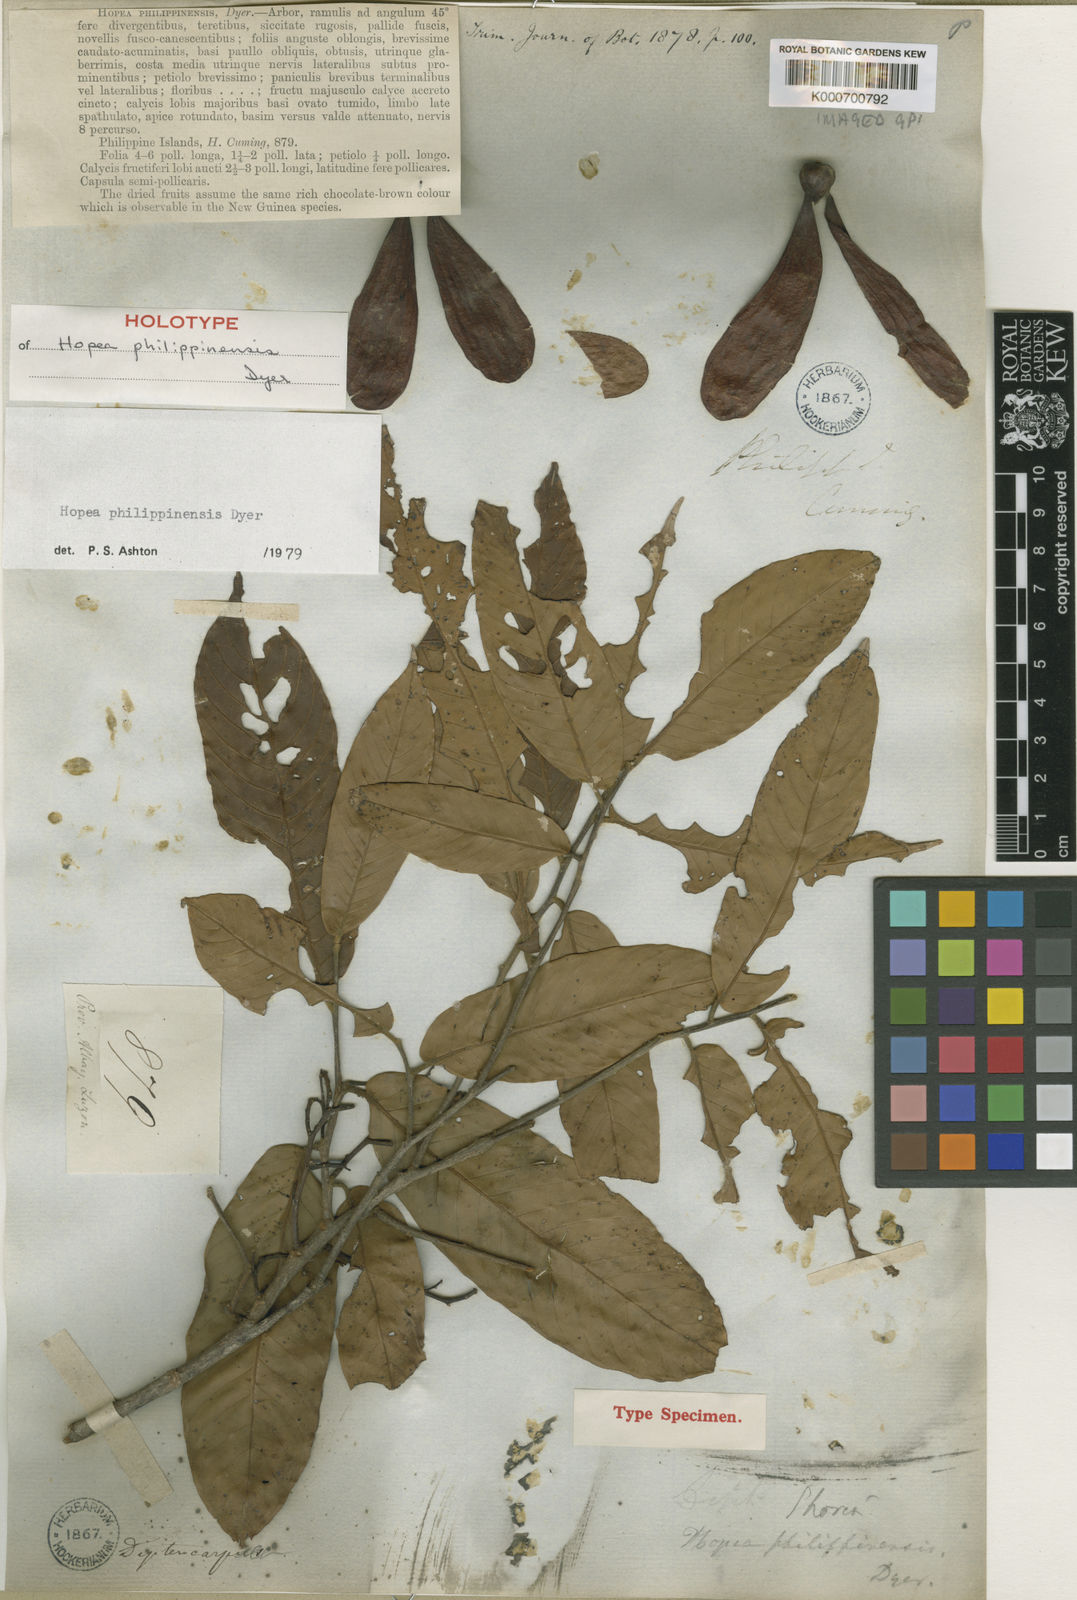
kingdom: Plantae
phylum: Tracheophyta
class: Magnoliopsida
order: Malvales
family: Dipterocarpaceae
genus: Hopea
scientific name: Hopea philippinensis
